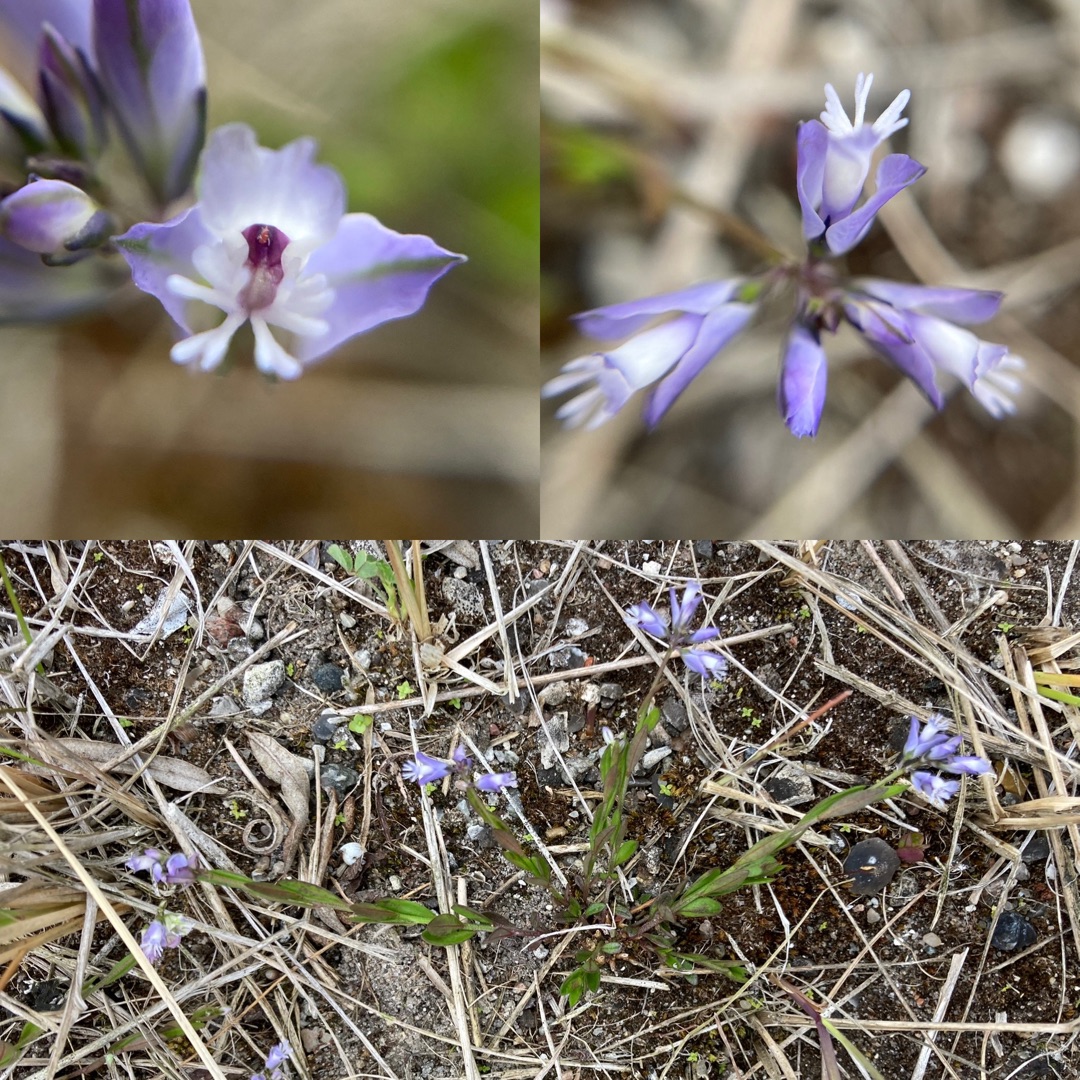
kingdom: Plantae
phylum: Tracheophyta
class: Magnoliopsida
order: Fabales
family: Polygalaceae
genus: Polygala
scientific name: Polygala vulgaris
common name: Almindelig mælkeurt
